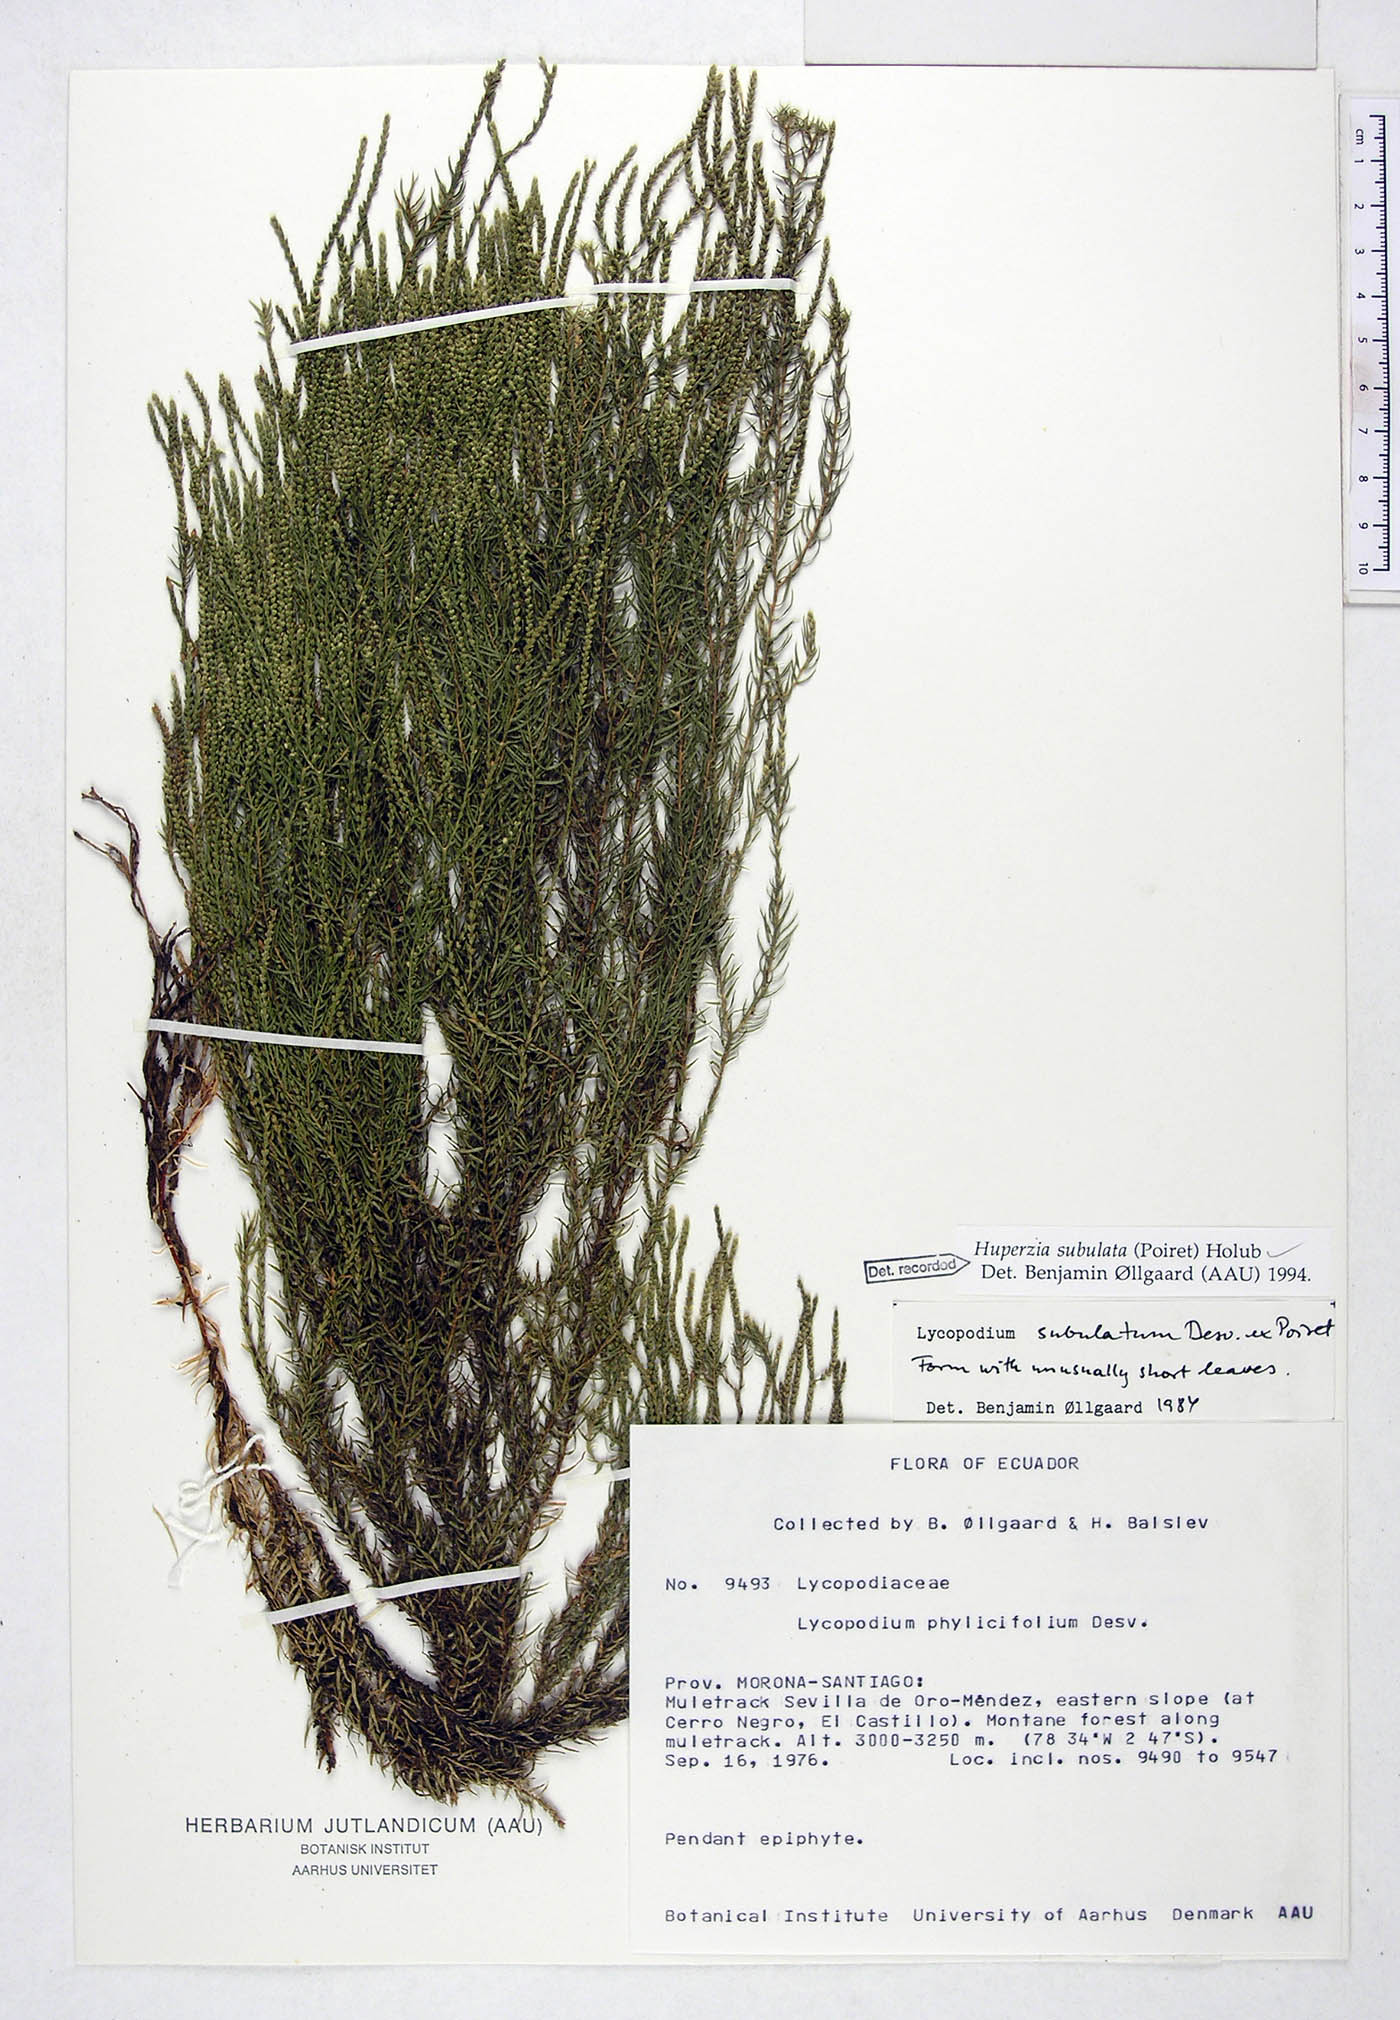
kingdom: Plantae
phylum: Tracheophyta
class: Lycopodiopsida
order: Lycopodiales
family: Lycopodiaceae
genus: Phlegmariurus
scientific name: Phlegmariurus subulatus
